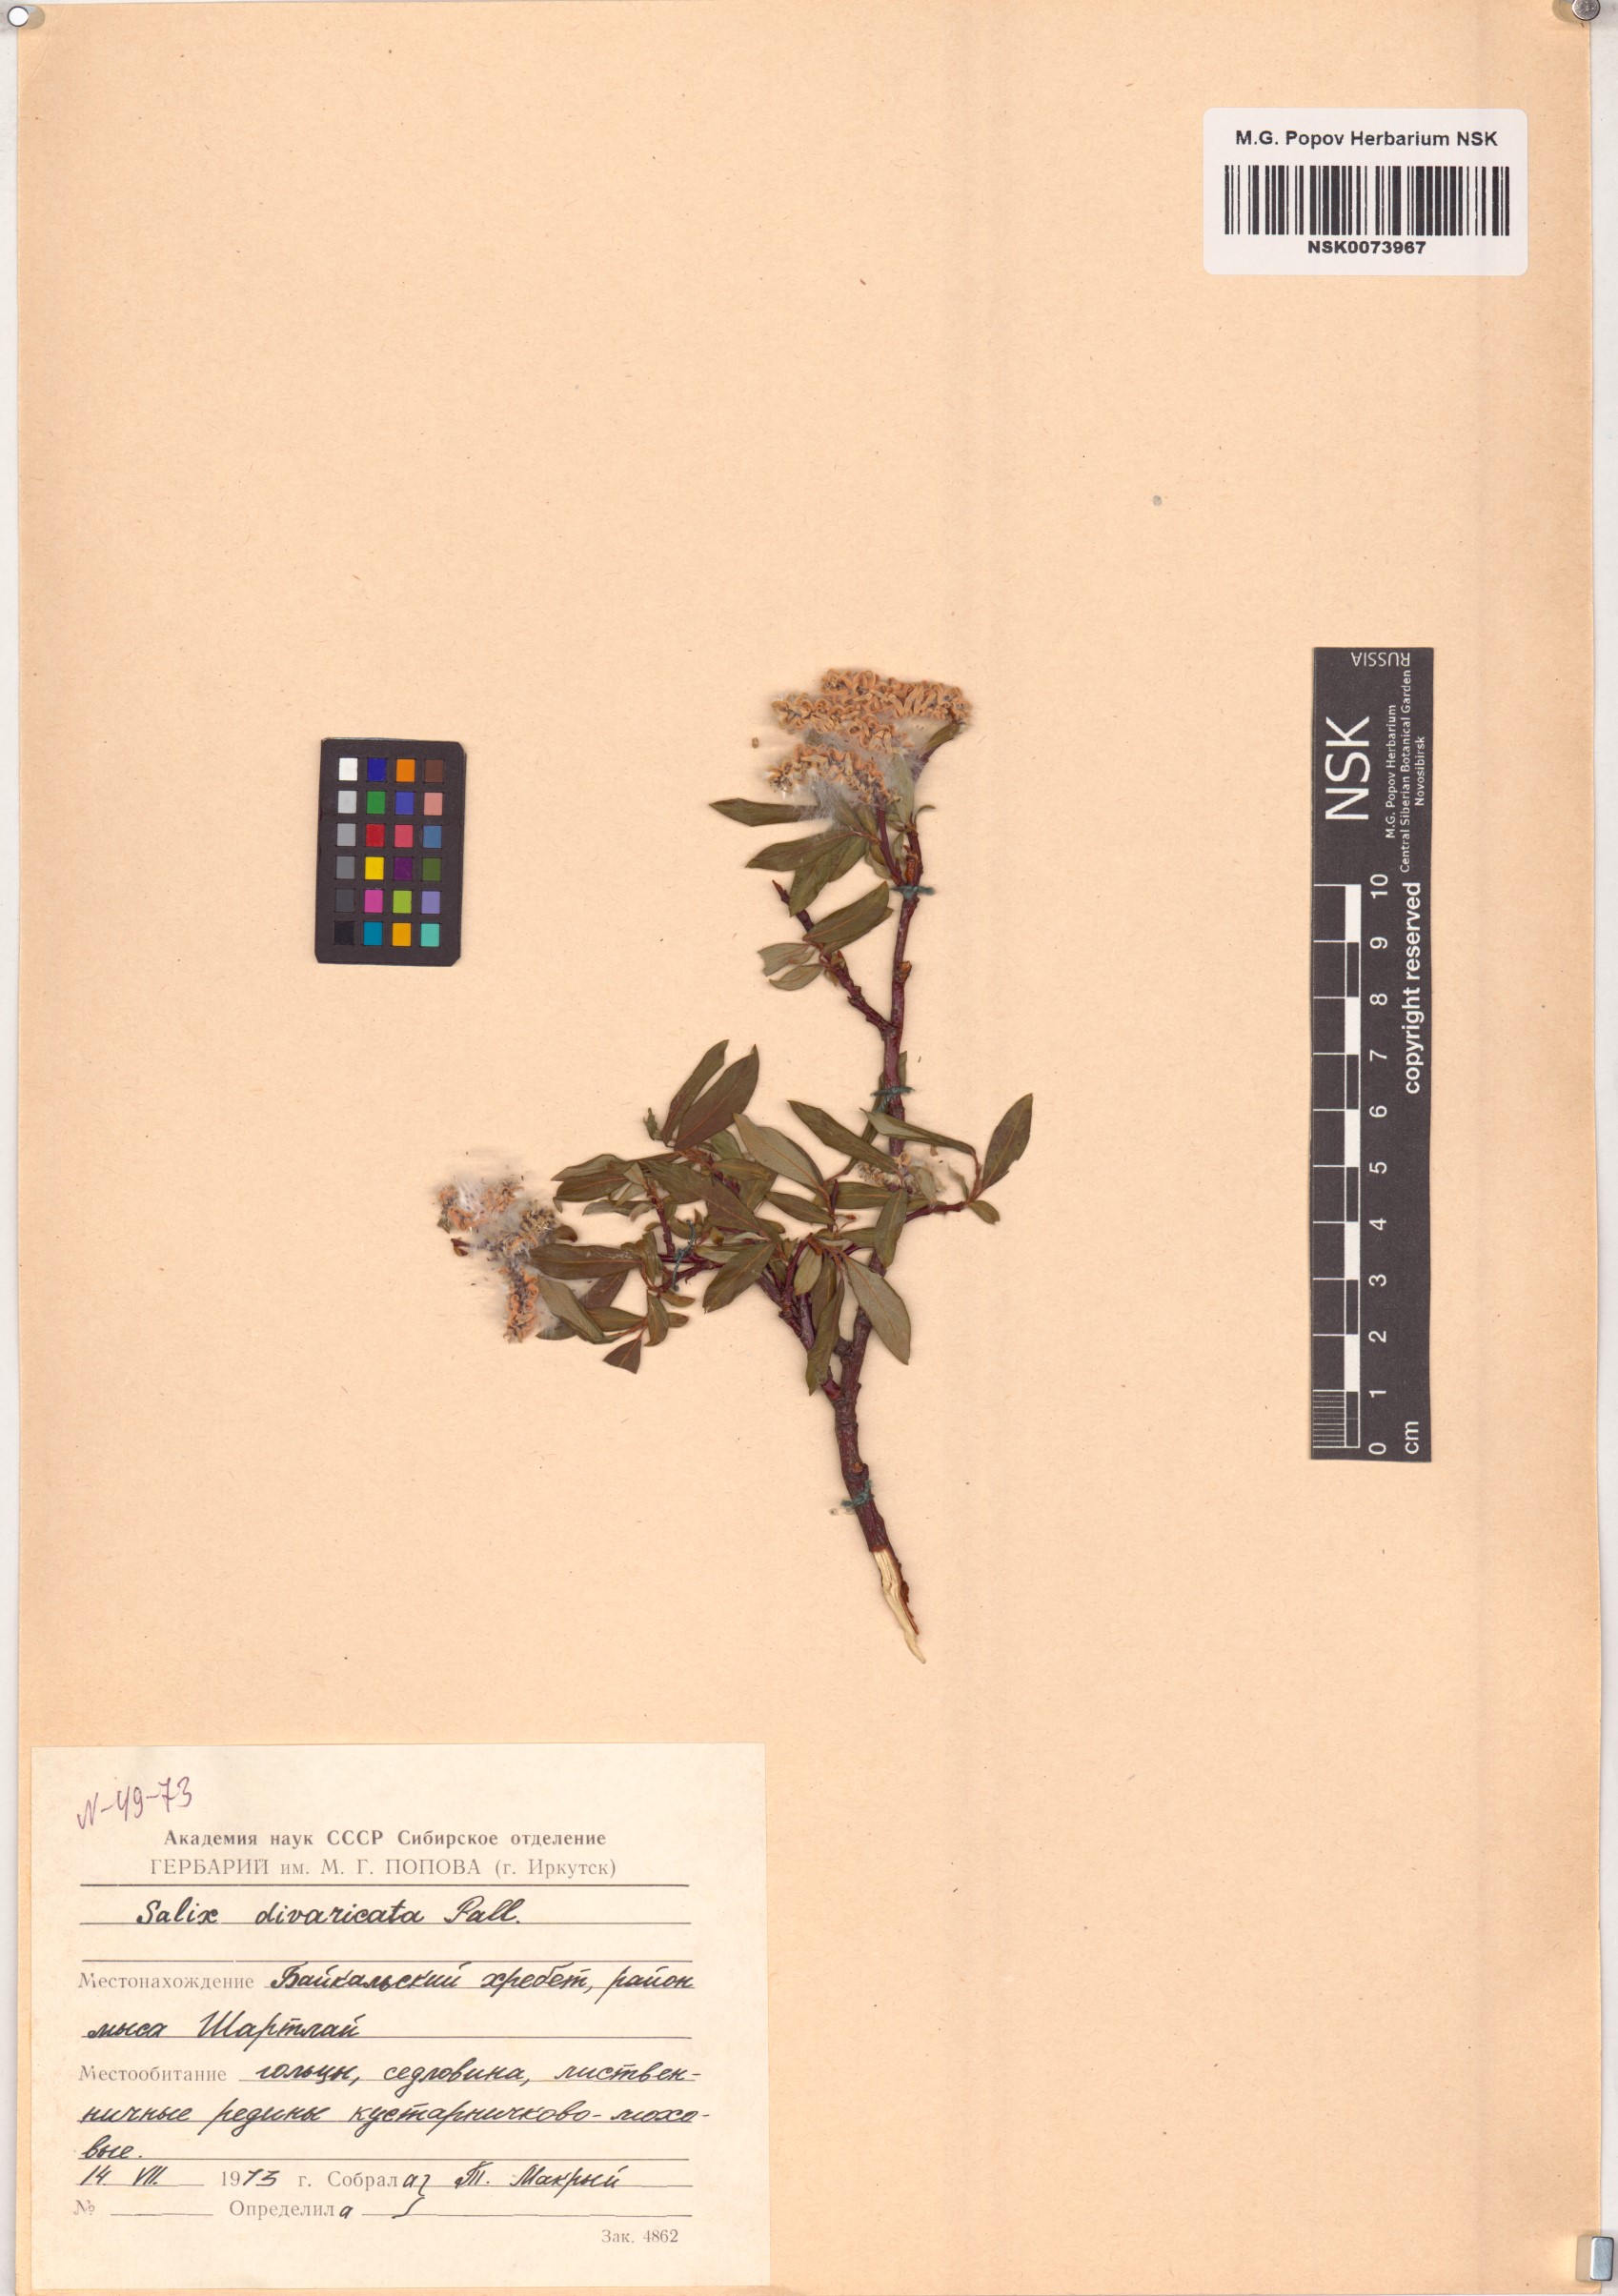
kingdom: Plantae
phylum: Tracheophyta
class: Magnoliopsida
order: Malpighiales
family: Salicaceae
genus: Salix
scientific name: Salix divaricata
